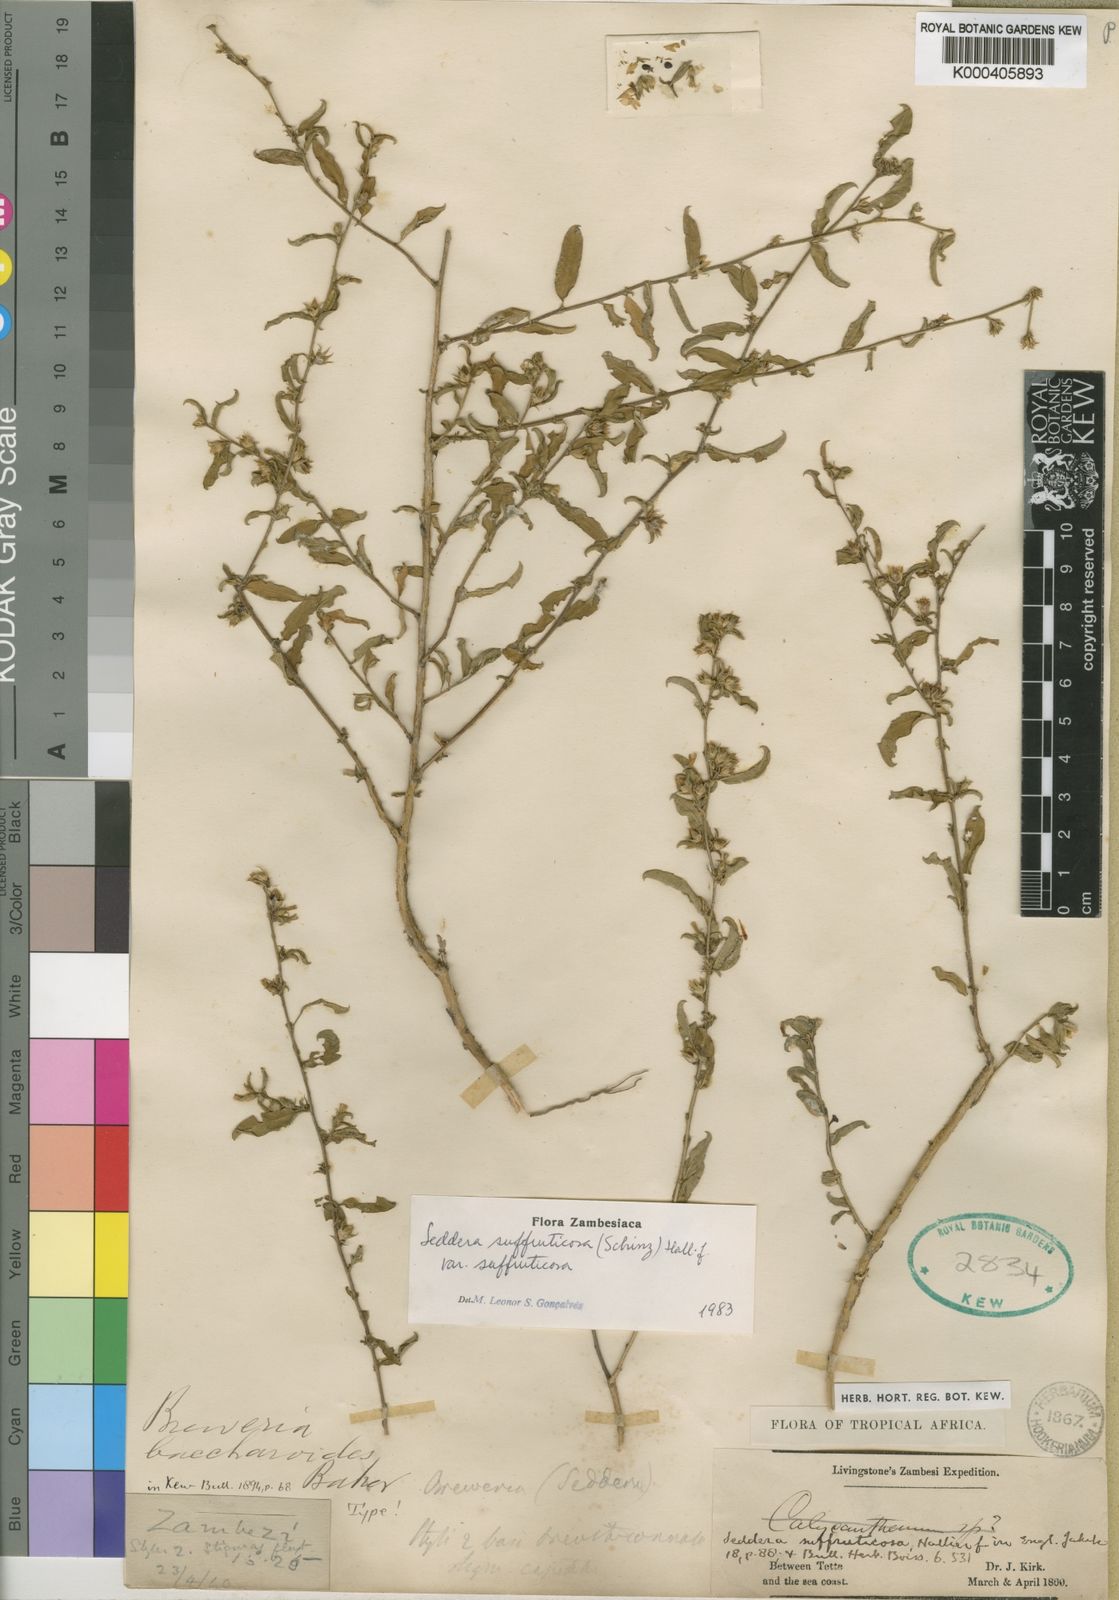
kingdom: Plantae
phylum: Tracheophyta
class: Magnoliopsida
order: Solanales
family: Convolvulaceae
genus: Seddera
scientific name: Seddera suffruticosa
